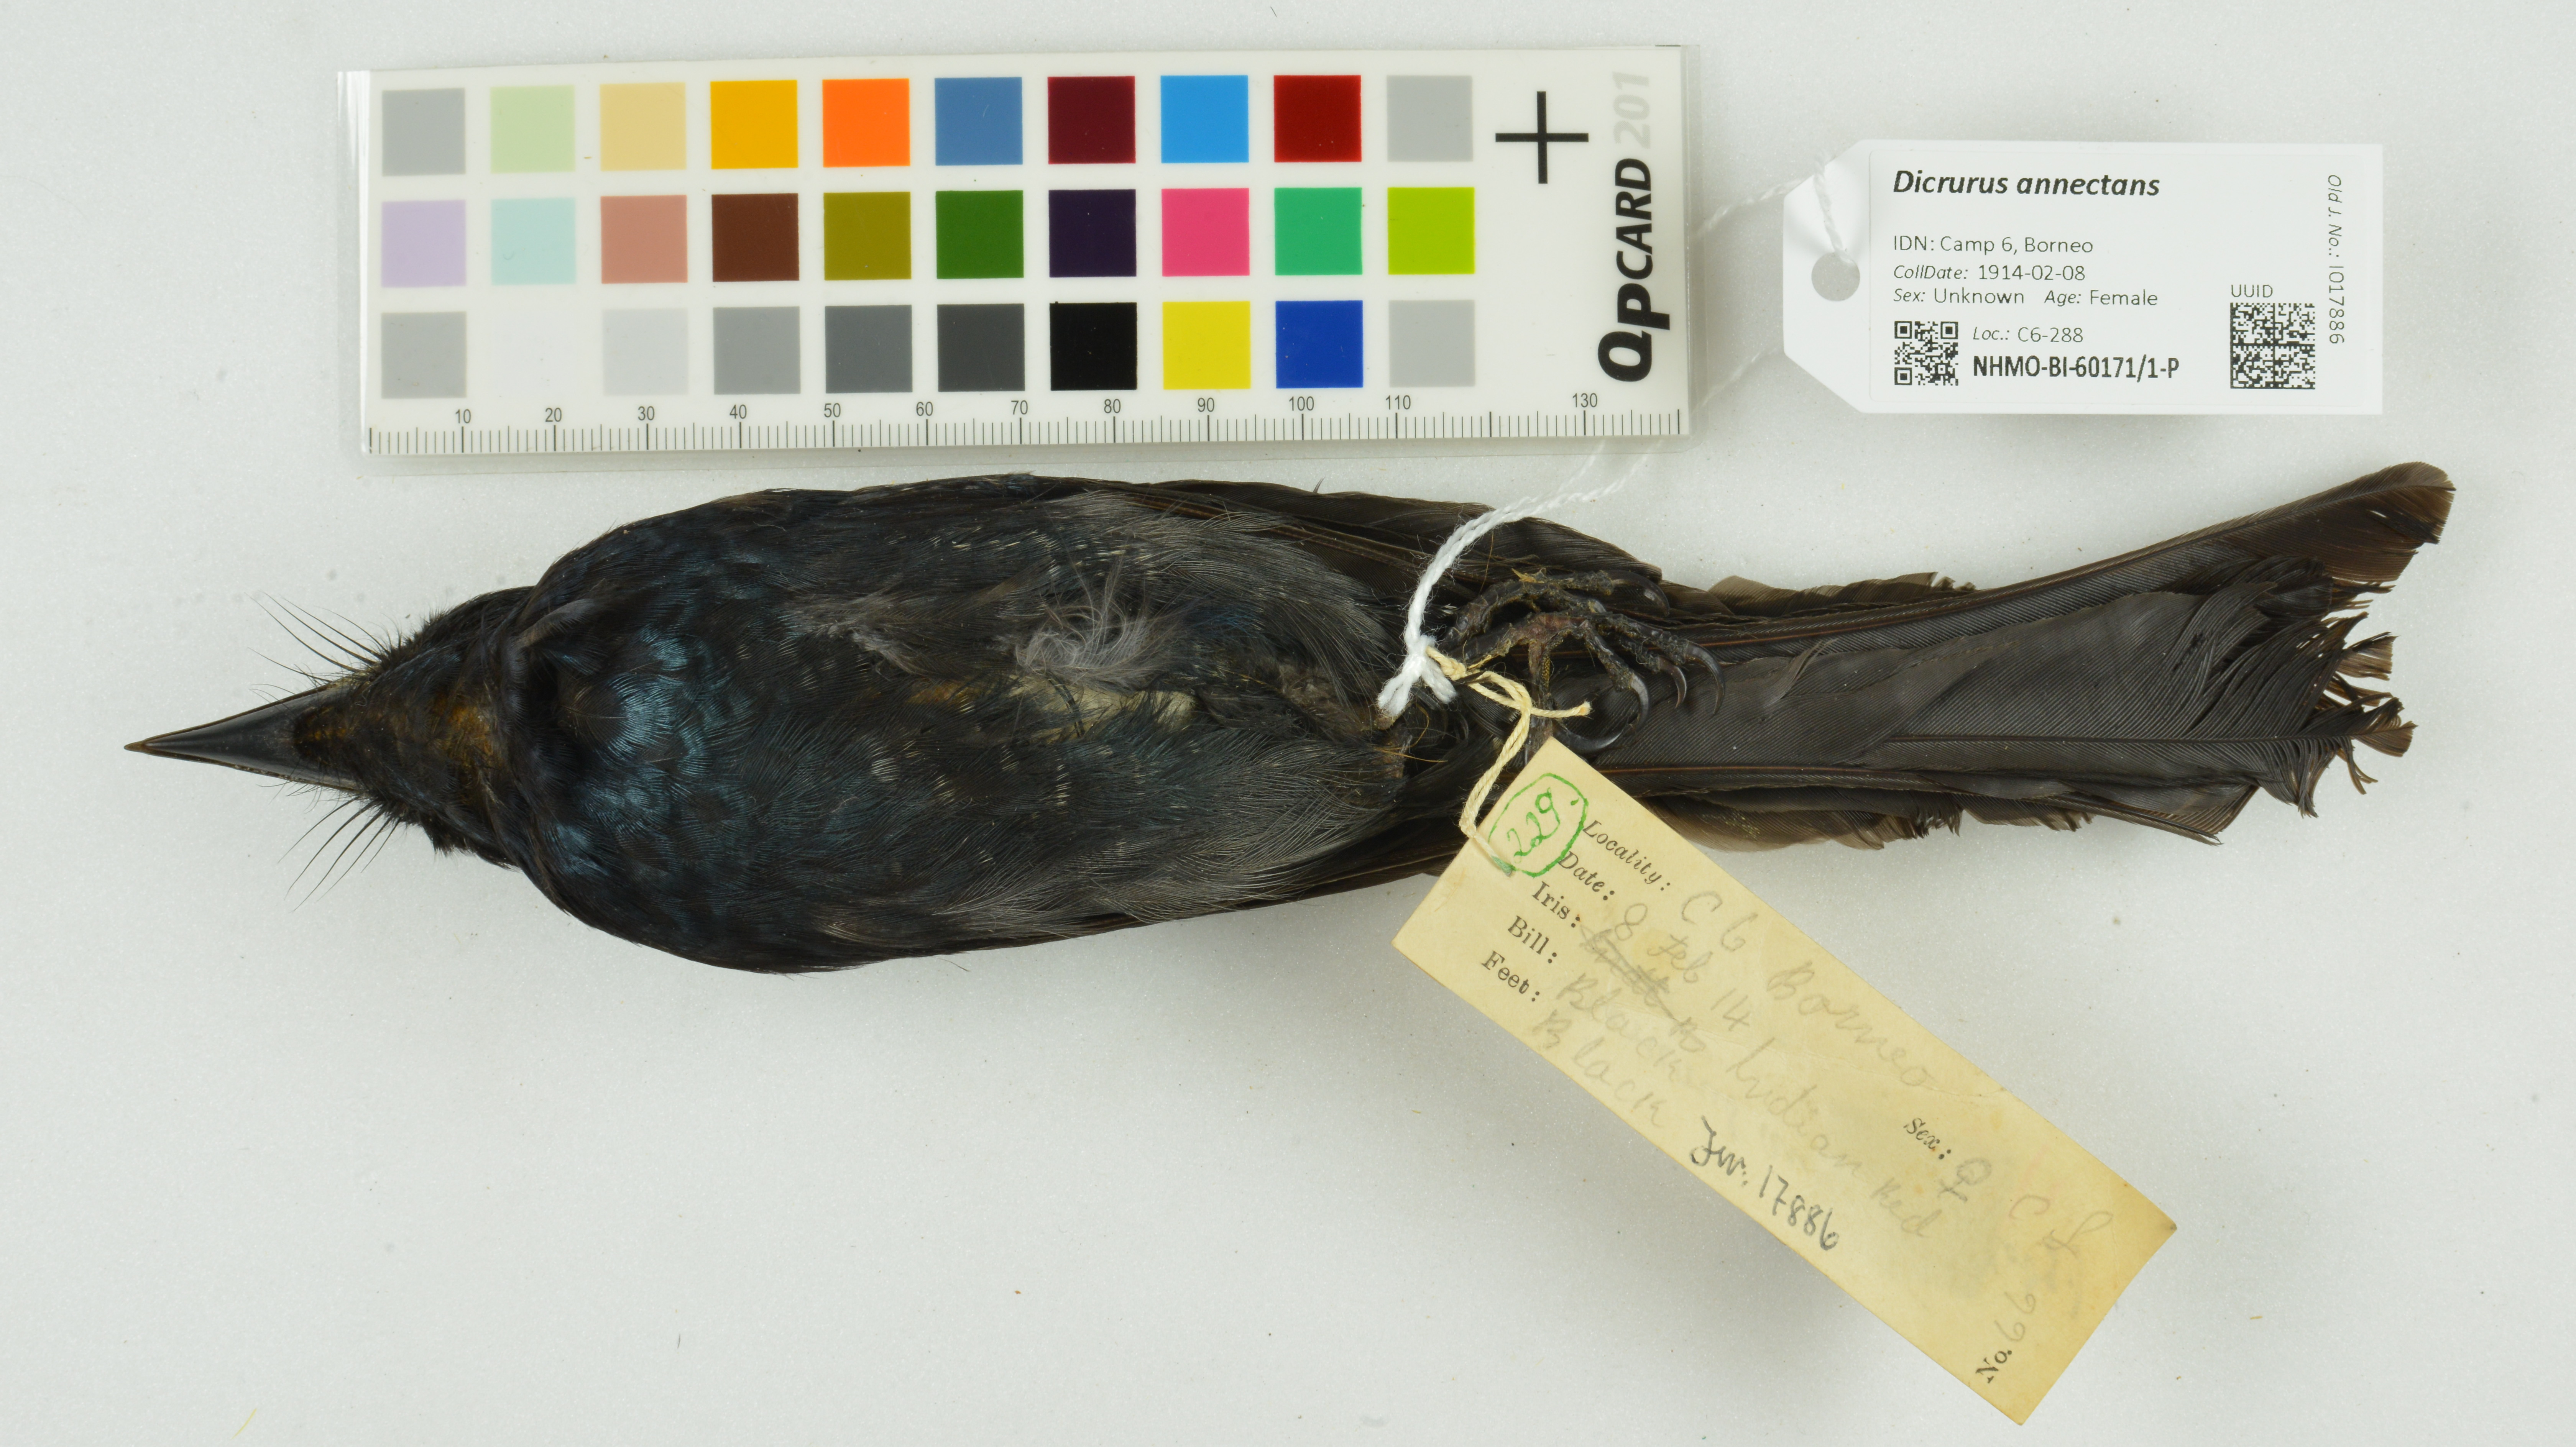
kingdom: Animalia
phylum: Chordata
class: Aves
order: Passeriformes
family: Dicruridae
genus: Dicrurus
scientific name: Dicrurus annectens
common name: Crow-billed drongo
